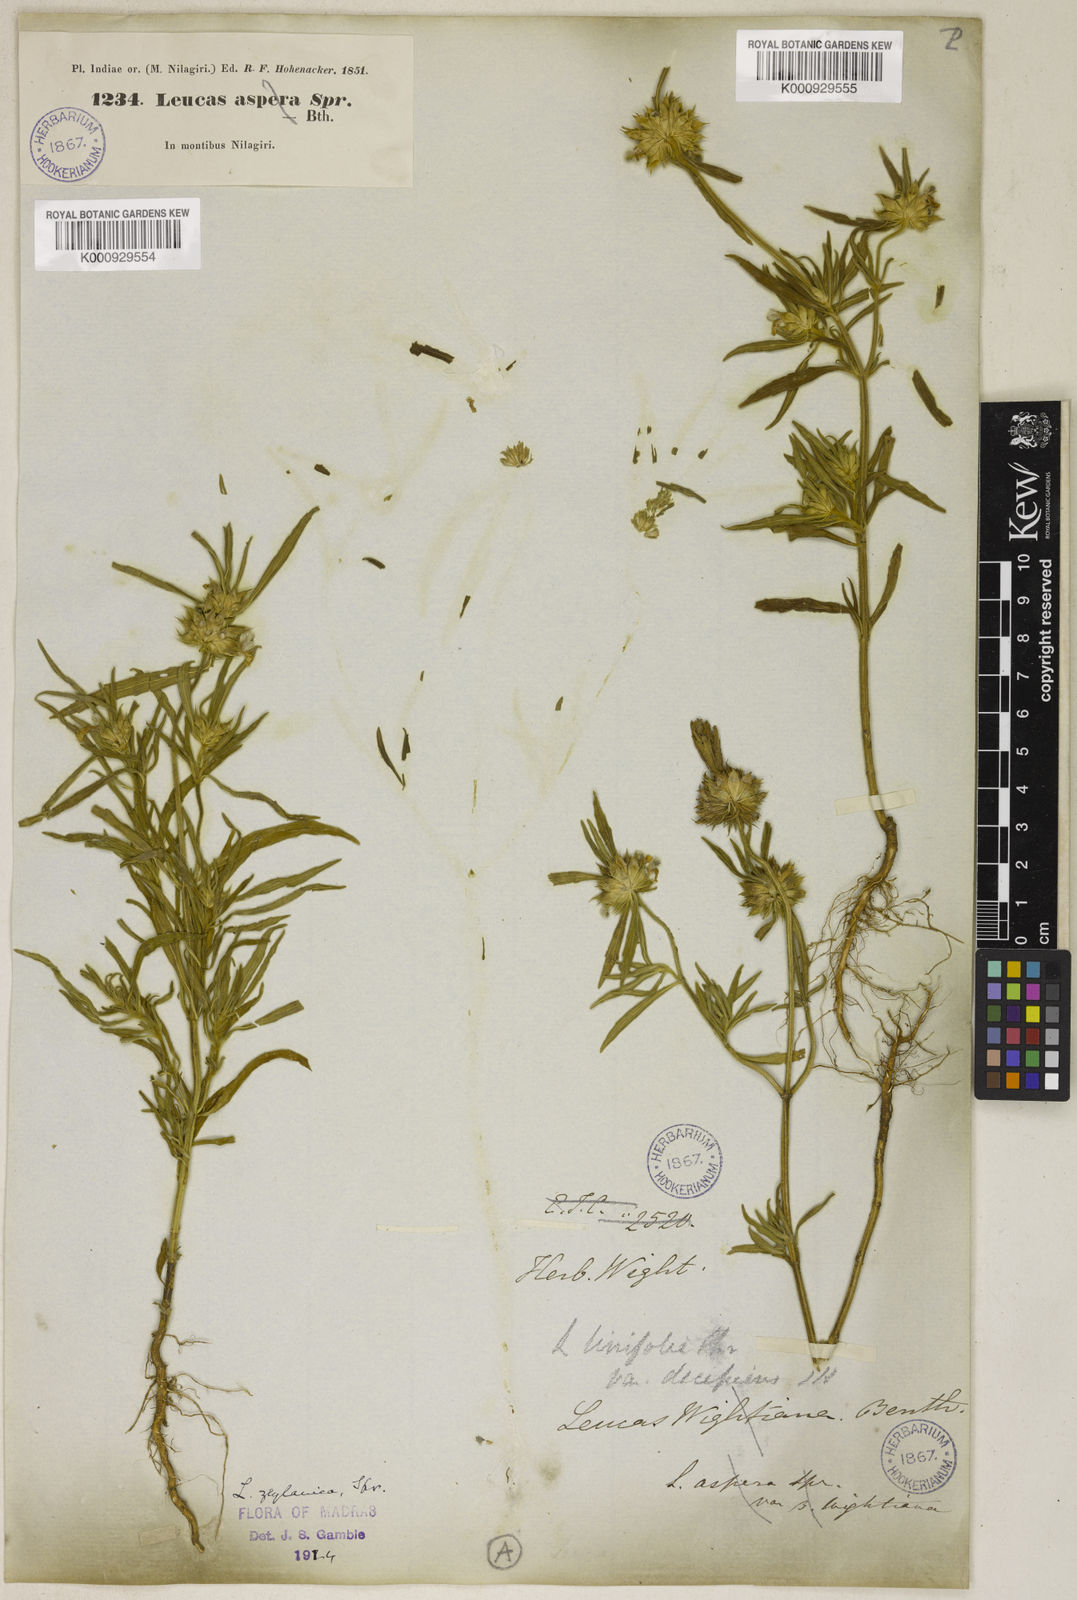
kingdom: Plantae
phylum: Tracheophyta
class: Magnoliopsida
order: Lamiales
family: Lamiaceae
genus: Leucas
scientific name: Leucas zeylanica
